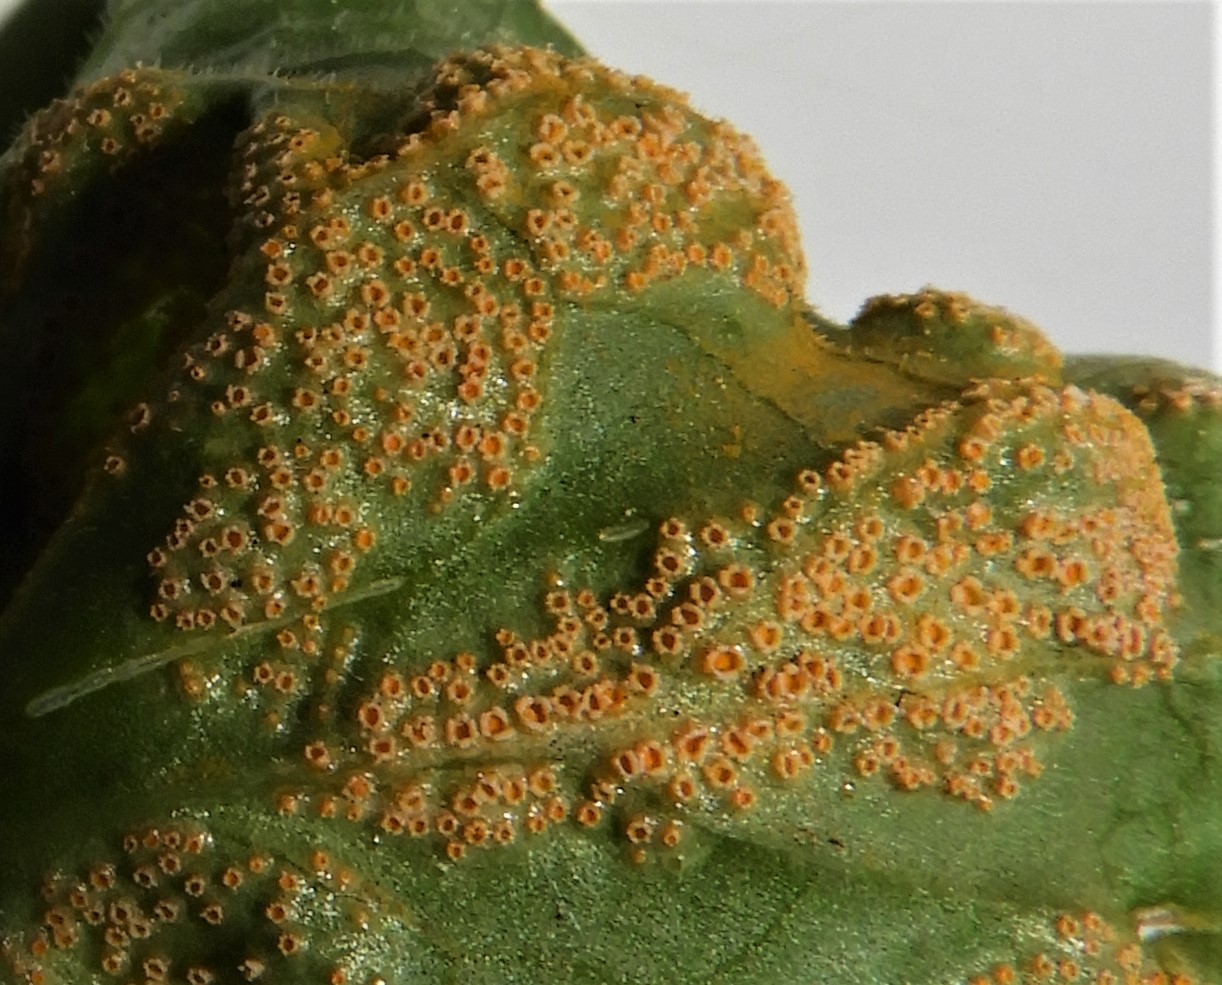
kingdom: Fungi
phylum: Basidiomycota
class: Pucciniomycetes
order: Pucciniales
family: Pucciniaceae
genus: Puccinia
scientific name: Puccinia violae
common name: viol-tvecellerust
